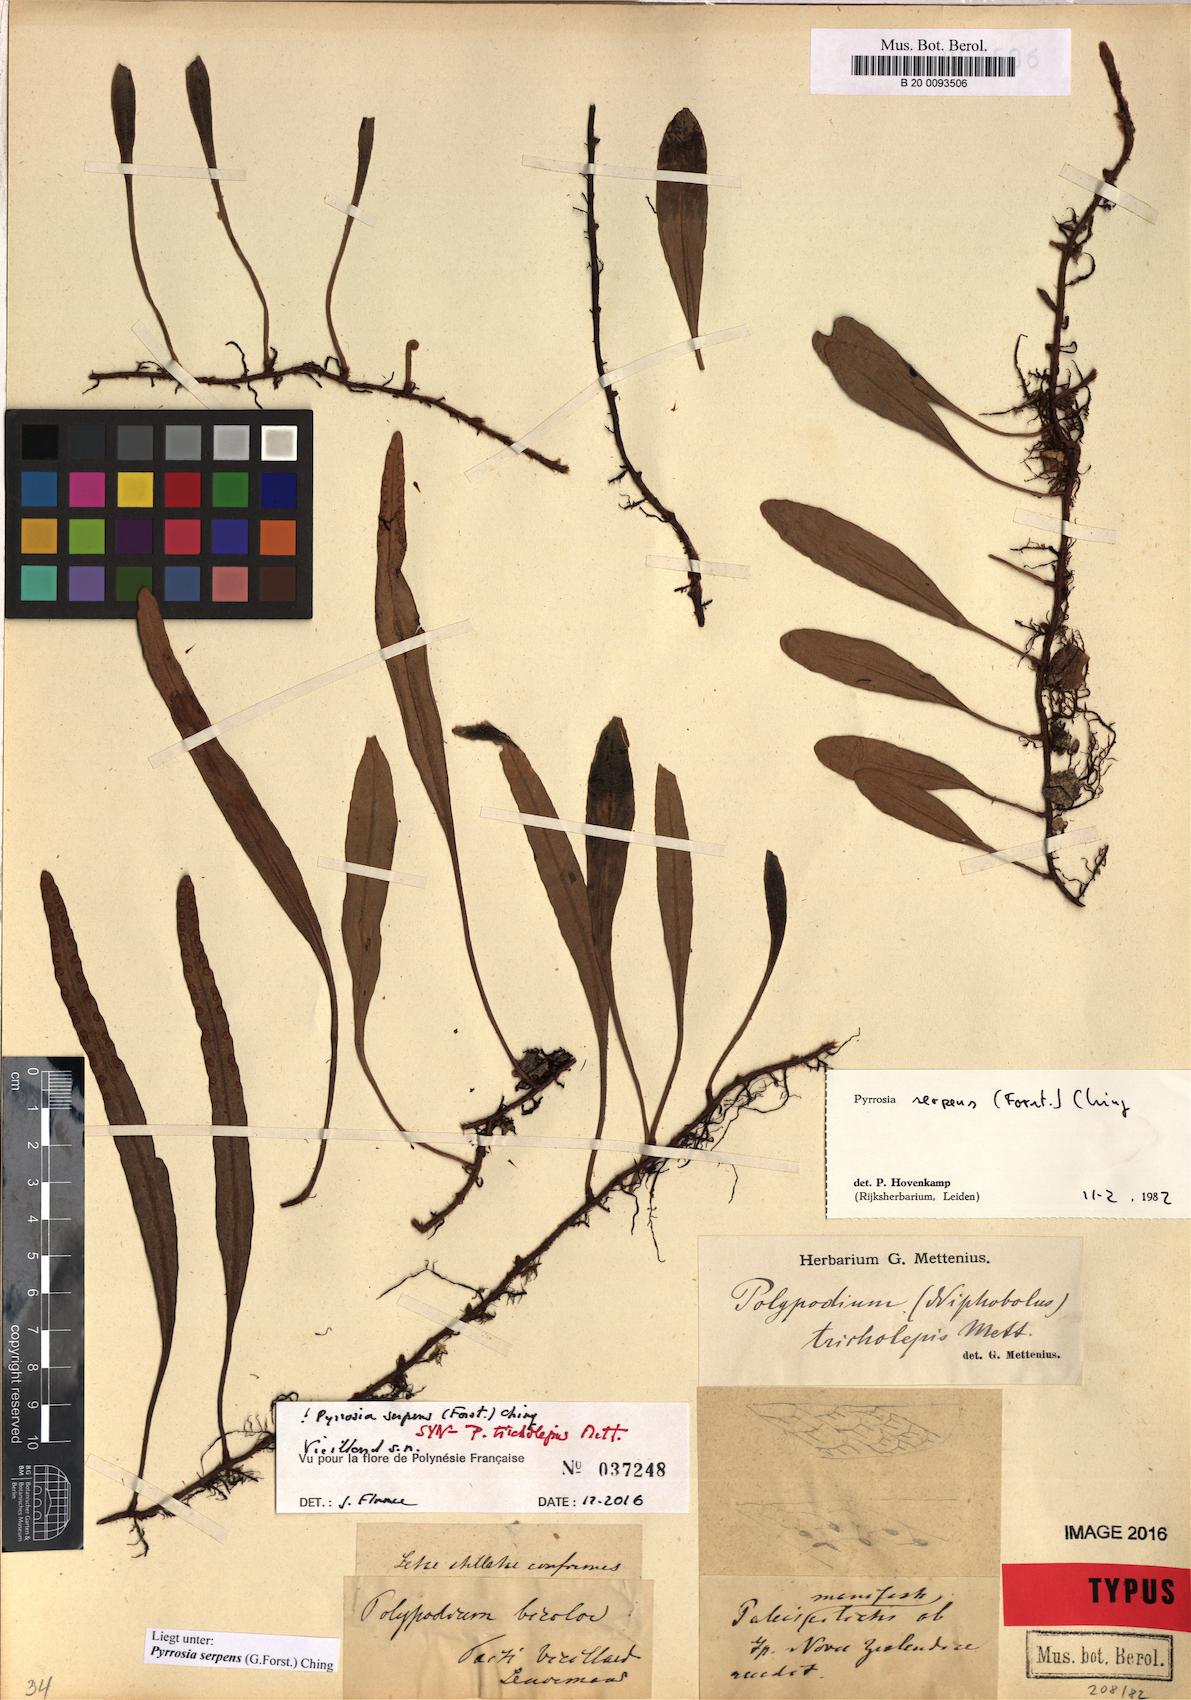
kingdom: Plantae
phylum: Tracheophyta
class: Polypodiopsida
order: Polypodiales
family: Polypodiaceae
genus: Pyrrosia
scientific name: Pyrrosia serpens
